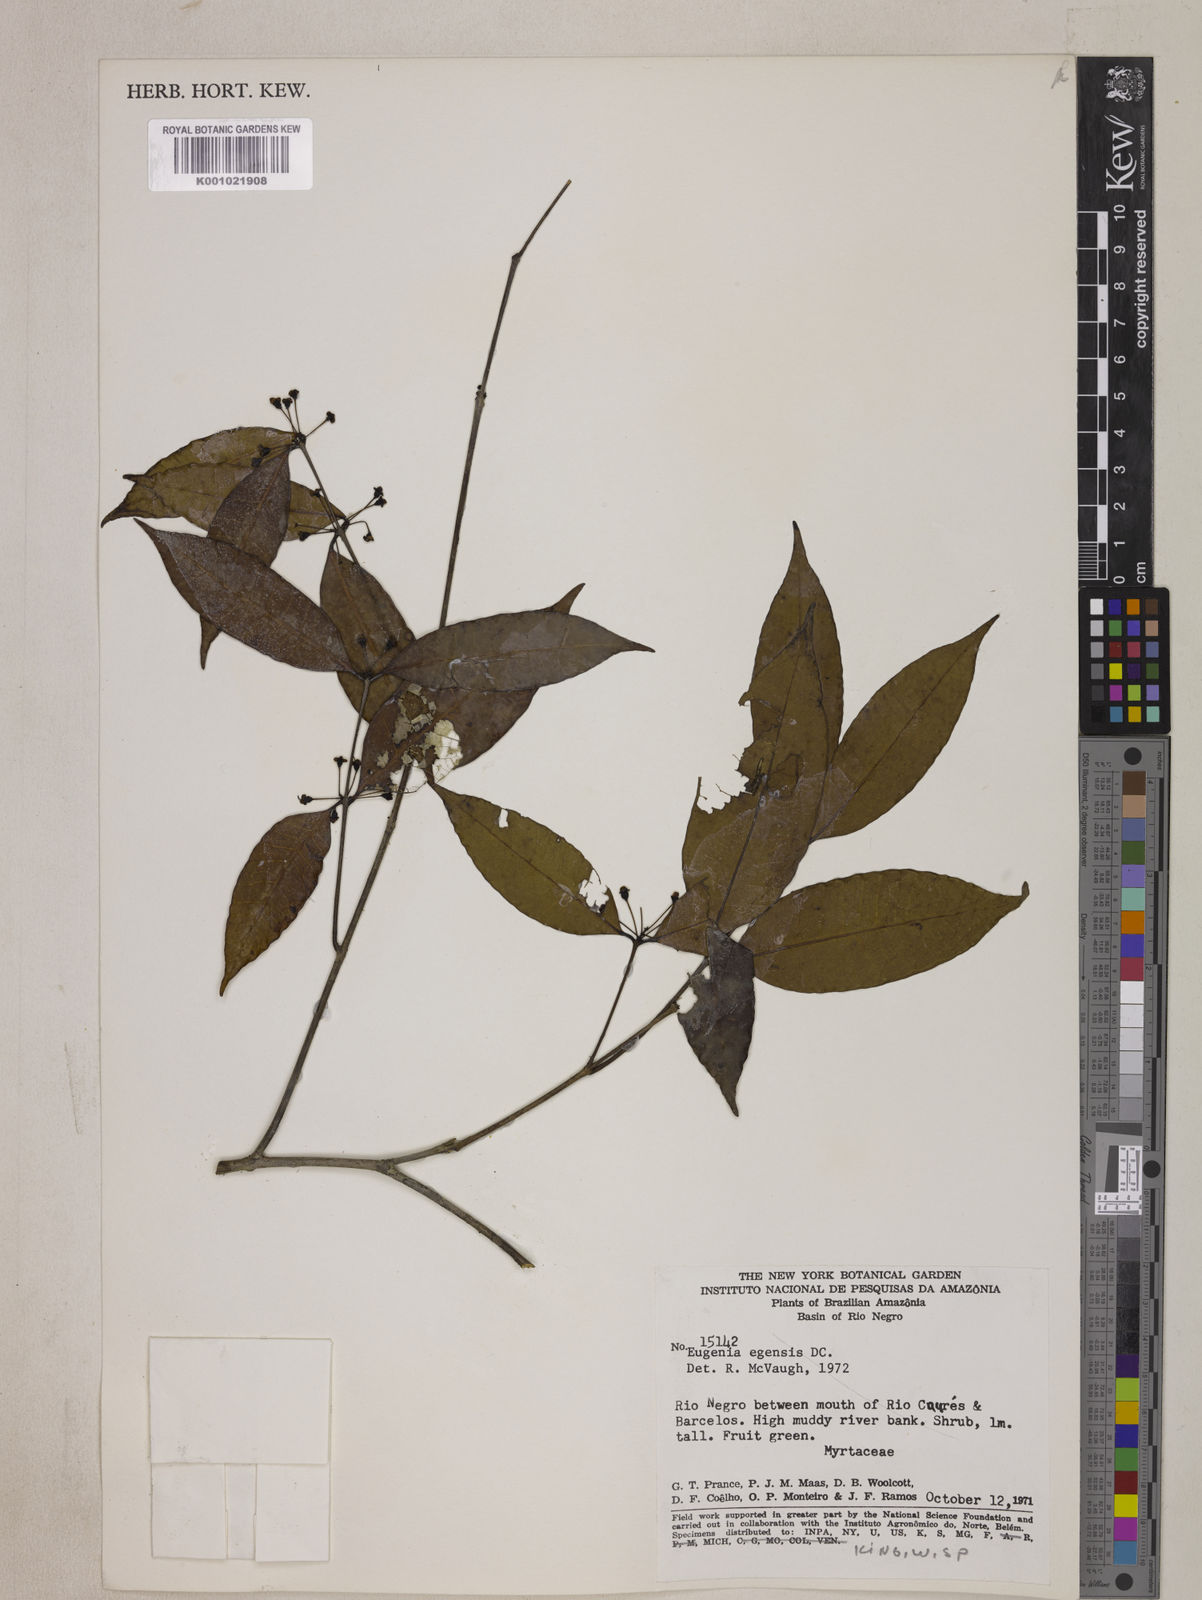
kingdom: Plantae
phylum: Tracheophyta
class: Magnoliopsida
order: Myrtales
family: Myrtaceae
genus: Eugenia
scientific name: Eugenia egensis
